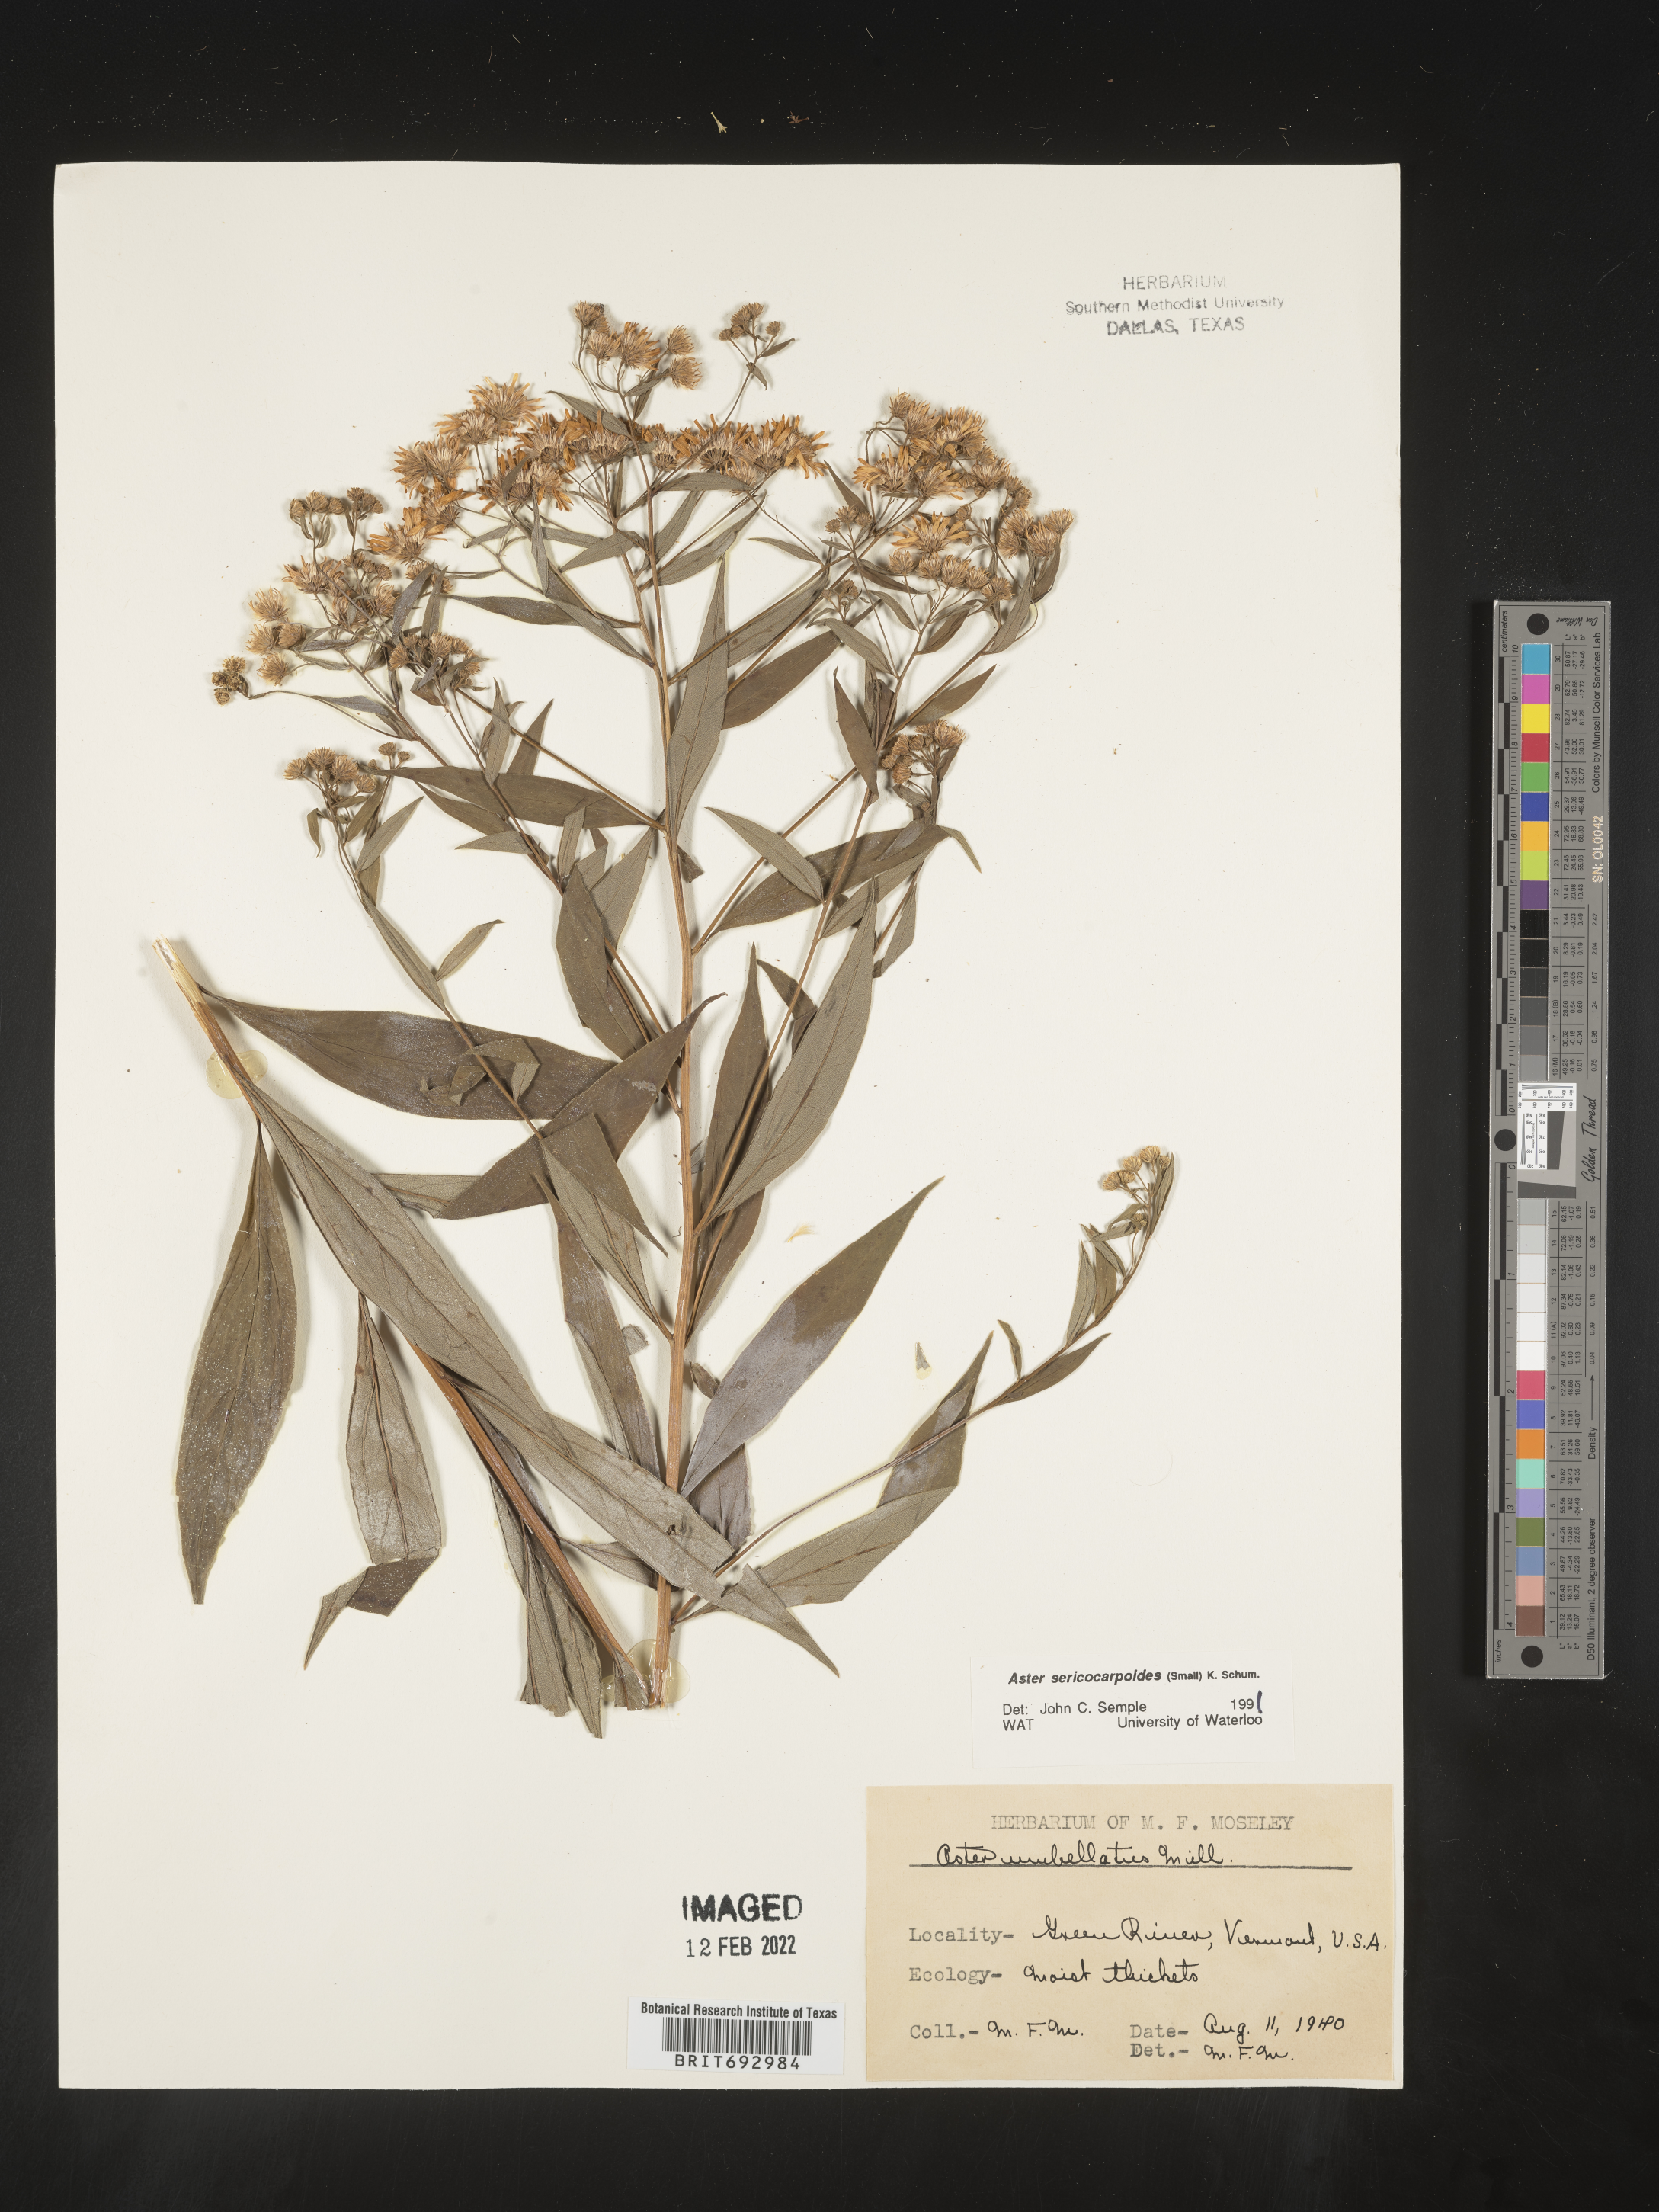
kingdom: Plantae
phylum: Tracheophyta
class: Magnoliopsida
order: Asterales
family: Asteraceae
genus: Doellingeria
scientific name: Doellingeria sericocarpoides
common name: Southern tall flat-top aster
